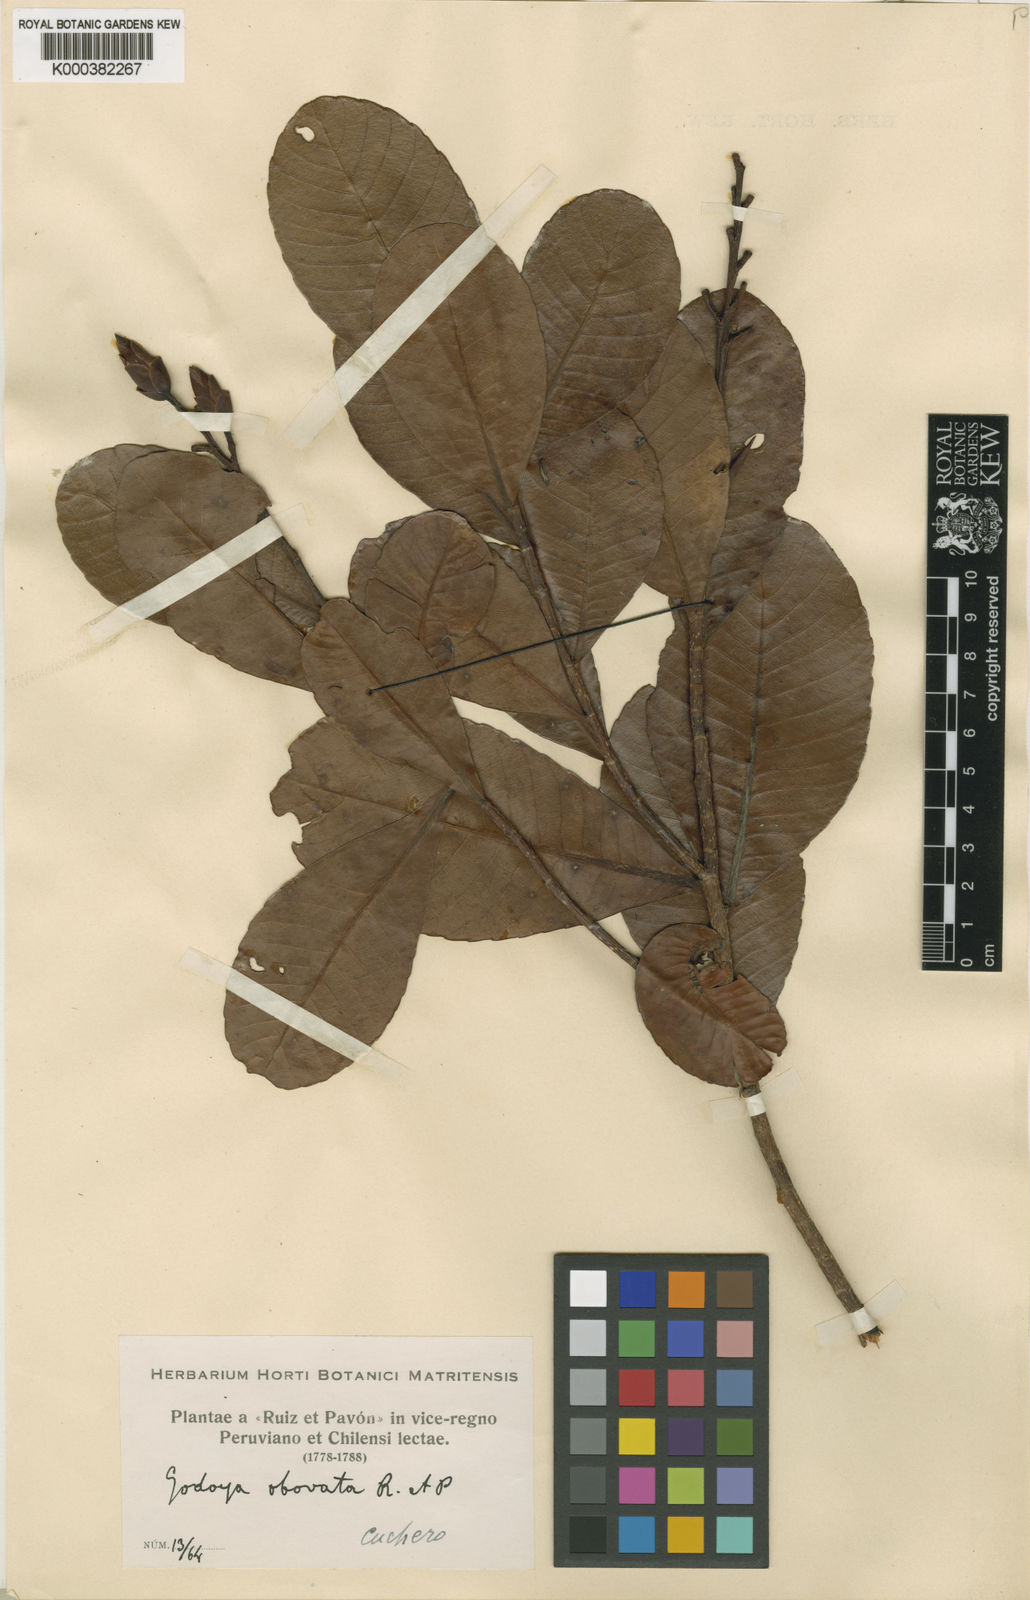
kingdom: Plantae
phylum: Tracheophyta
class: Magnoliopsida
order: Malpighiales
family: Ochnaceae
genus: Godoya
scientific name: Godoya obovata
